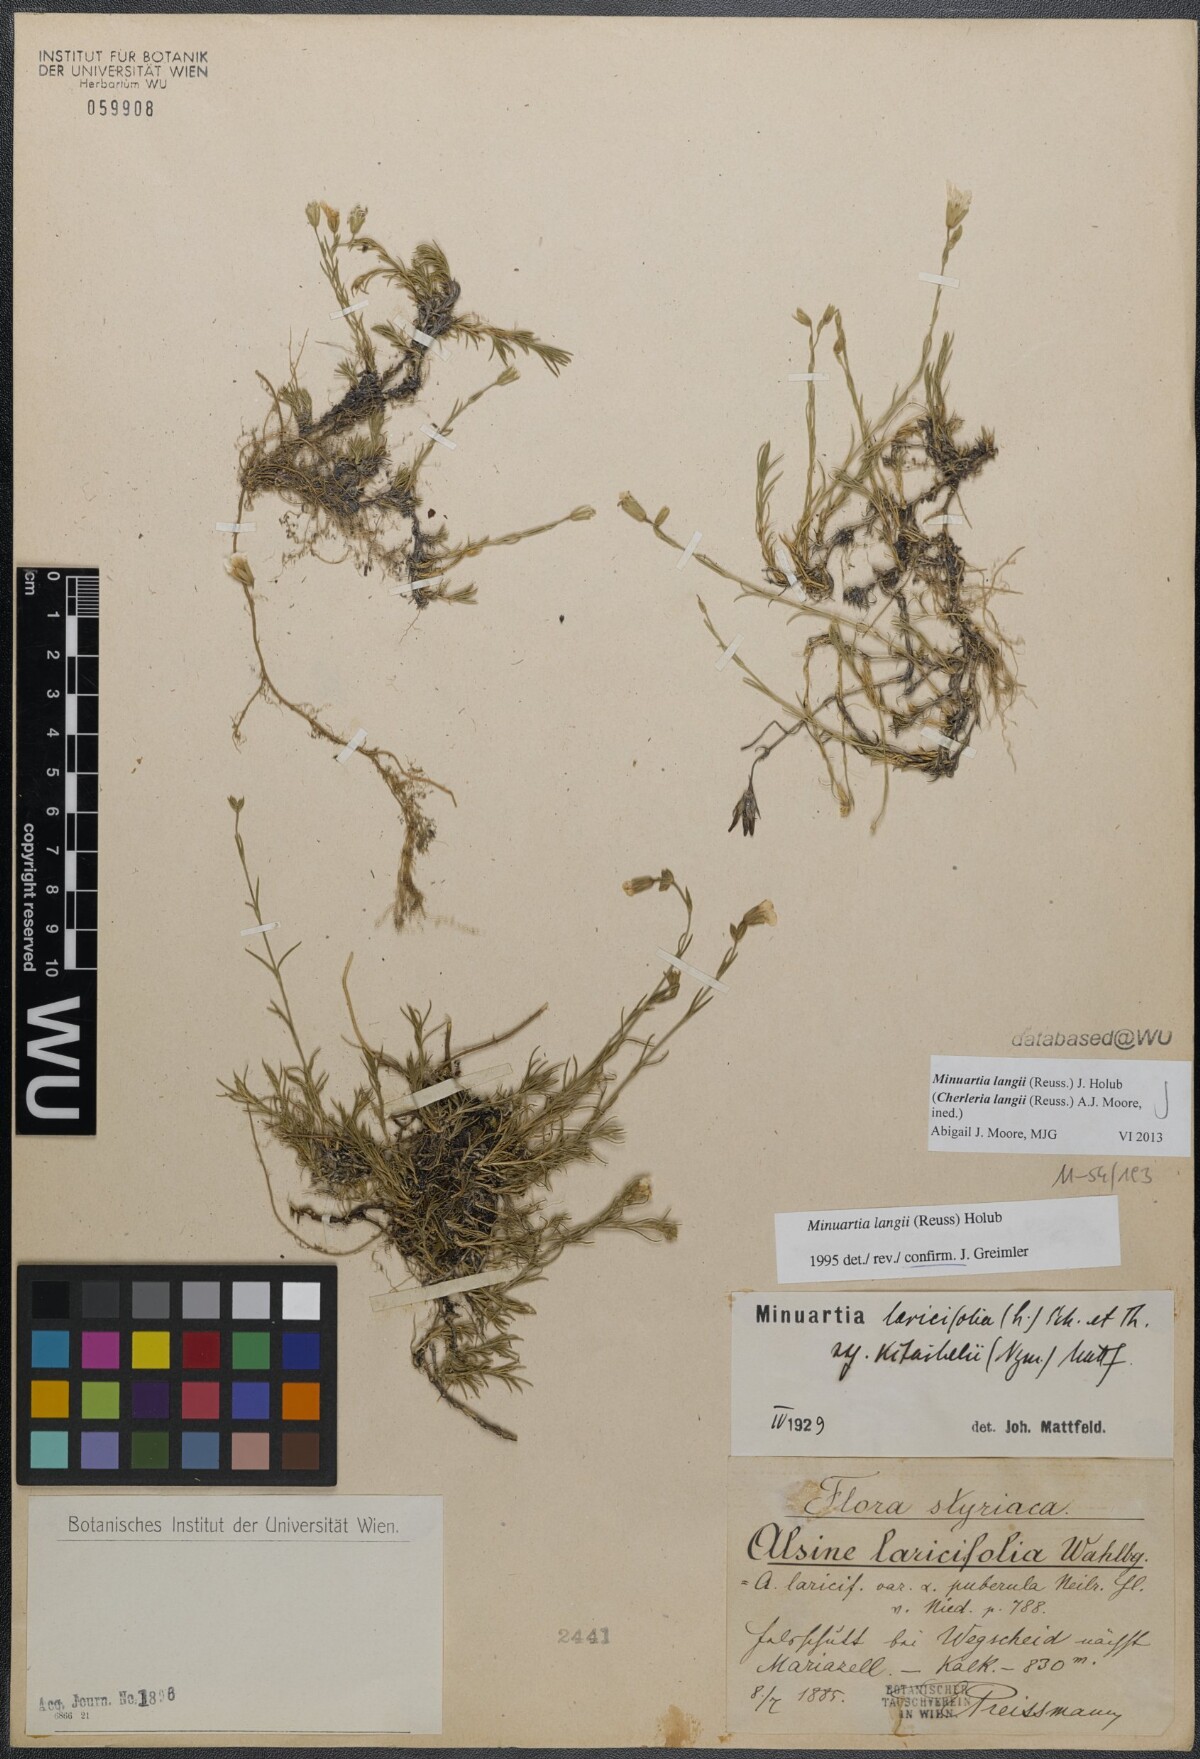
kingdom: Plantae
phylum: Tracheophyta
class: Magnoliopsida
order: Caryophyllales
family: Caryophyllaceae
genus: Cherleria
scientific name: Cherleria langii
